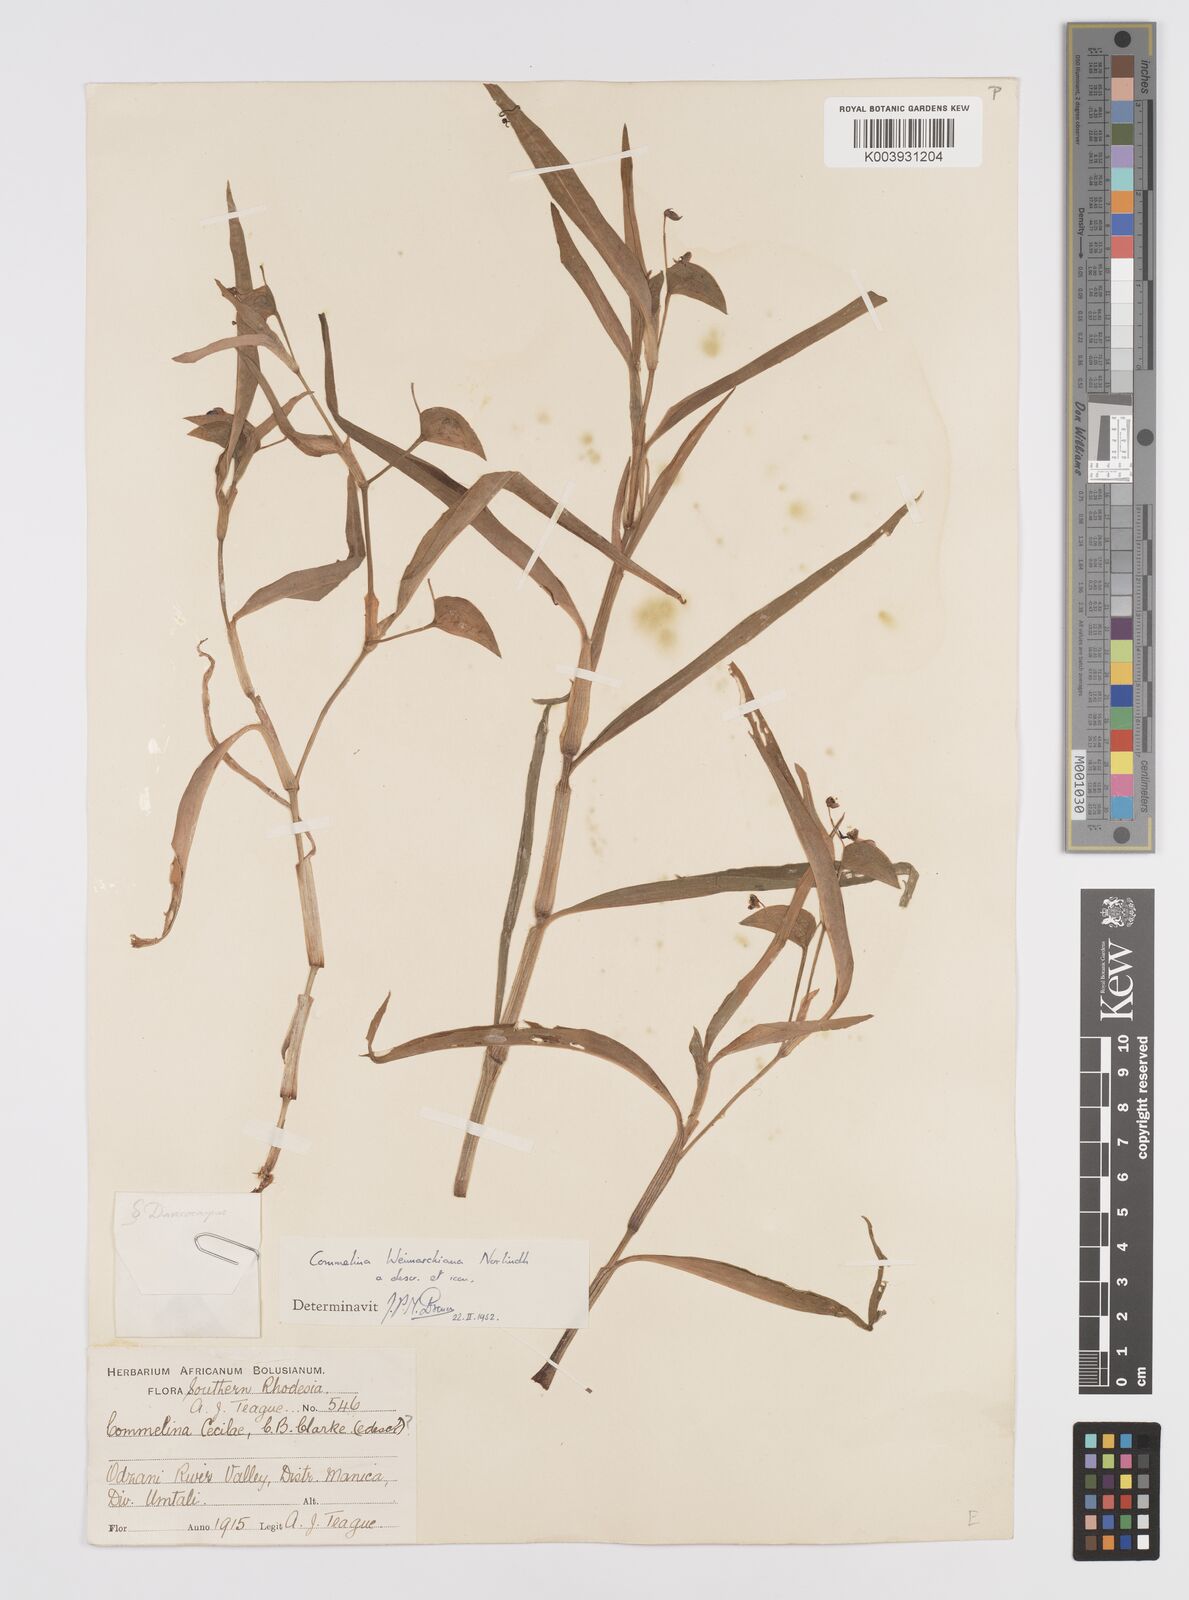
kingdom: Plantae
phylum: Tracheophyta
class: Liliopsida
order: Commelinales
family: Commelinaceae
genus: Commelina
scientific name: Commelina eckloniana
